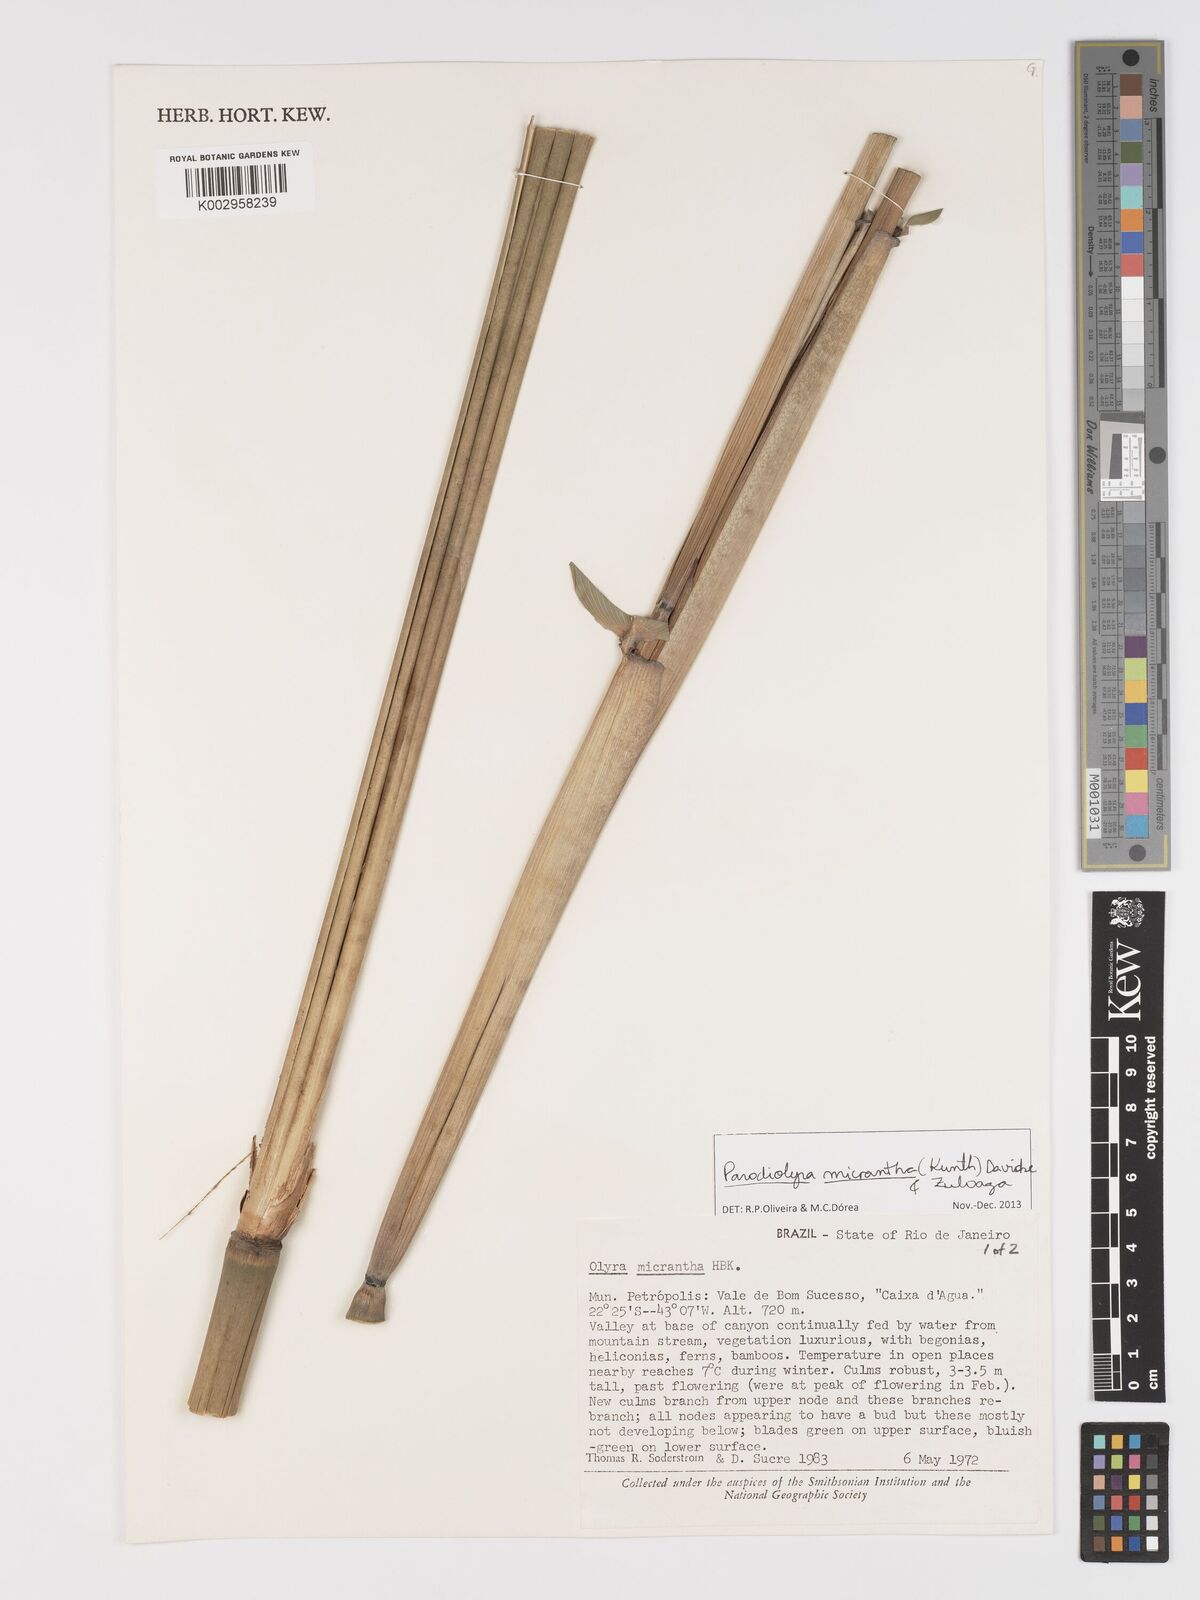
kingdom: Plantae
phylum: Tracheophyta
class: Liliopsida
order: Poales
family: Poaceae
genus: Taquara
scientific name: Taquara micrantha
